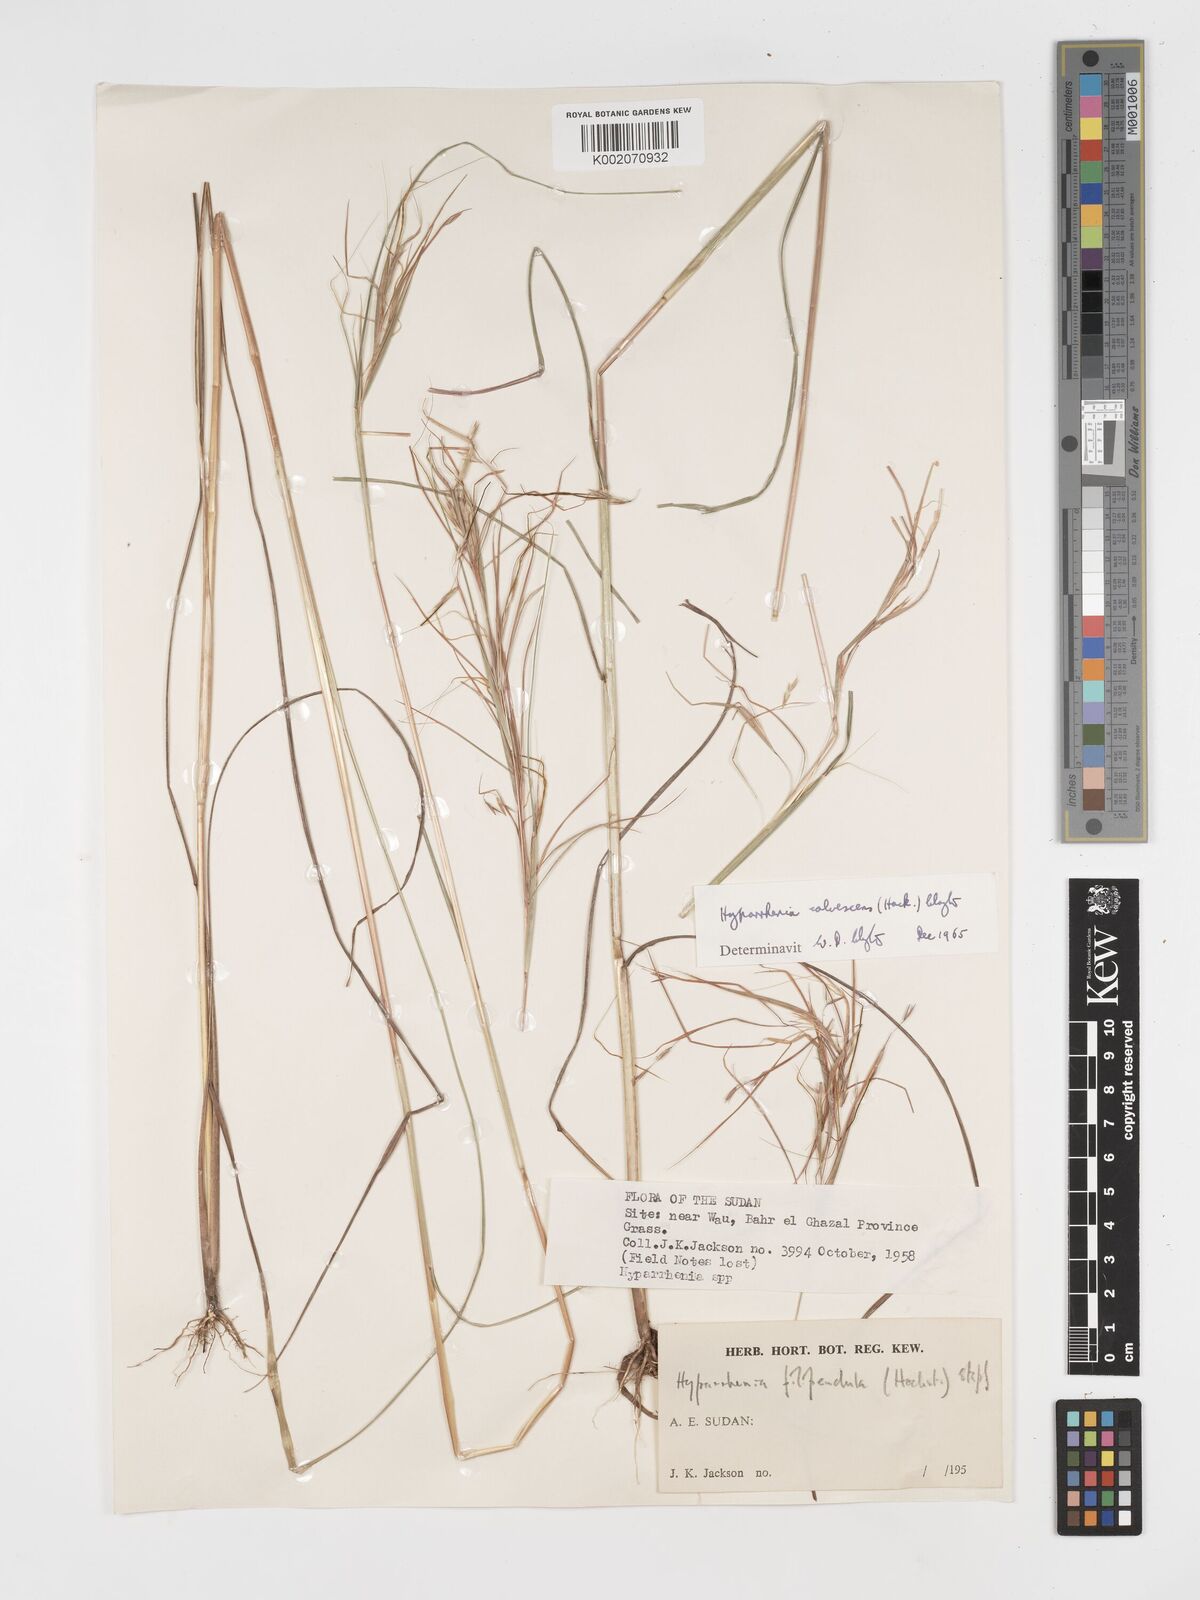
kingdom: Plantae
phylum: Tracheophyta
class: Liliopsida
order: Poales
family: Poaceae
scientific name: Poaceae
